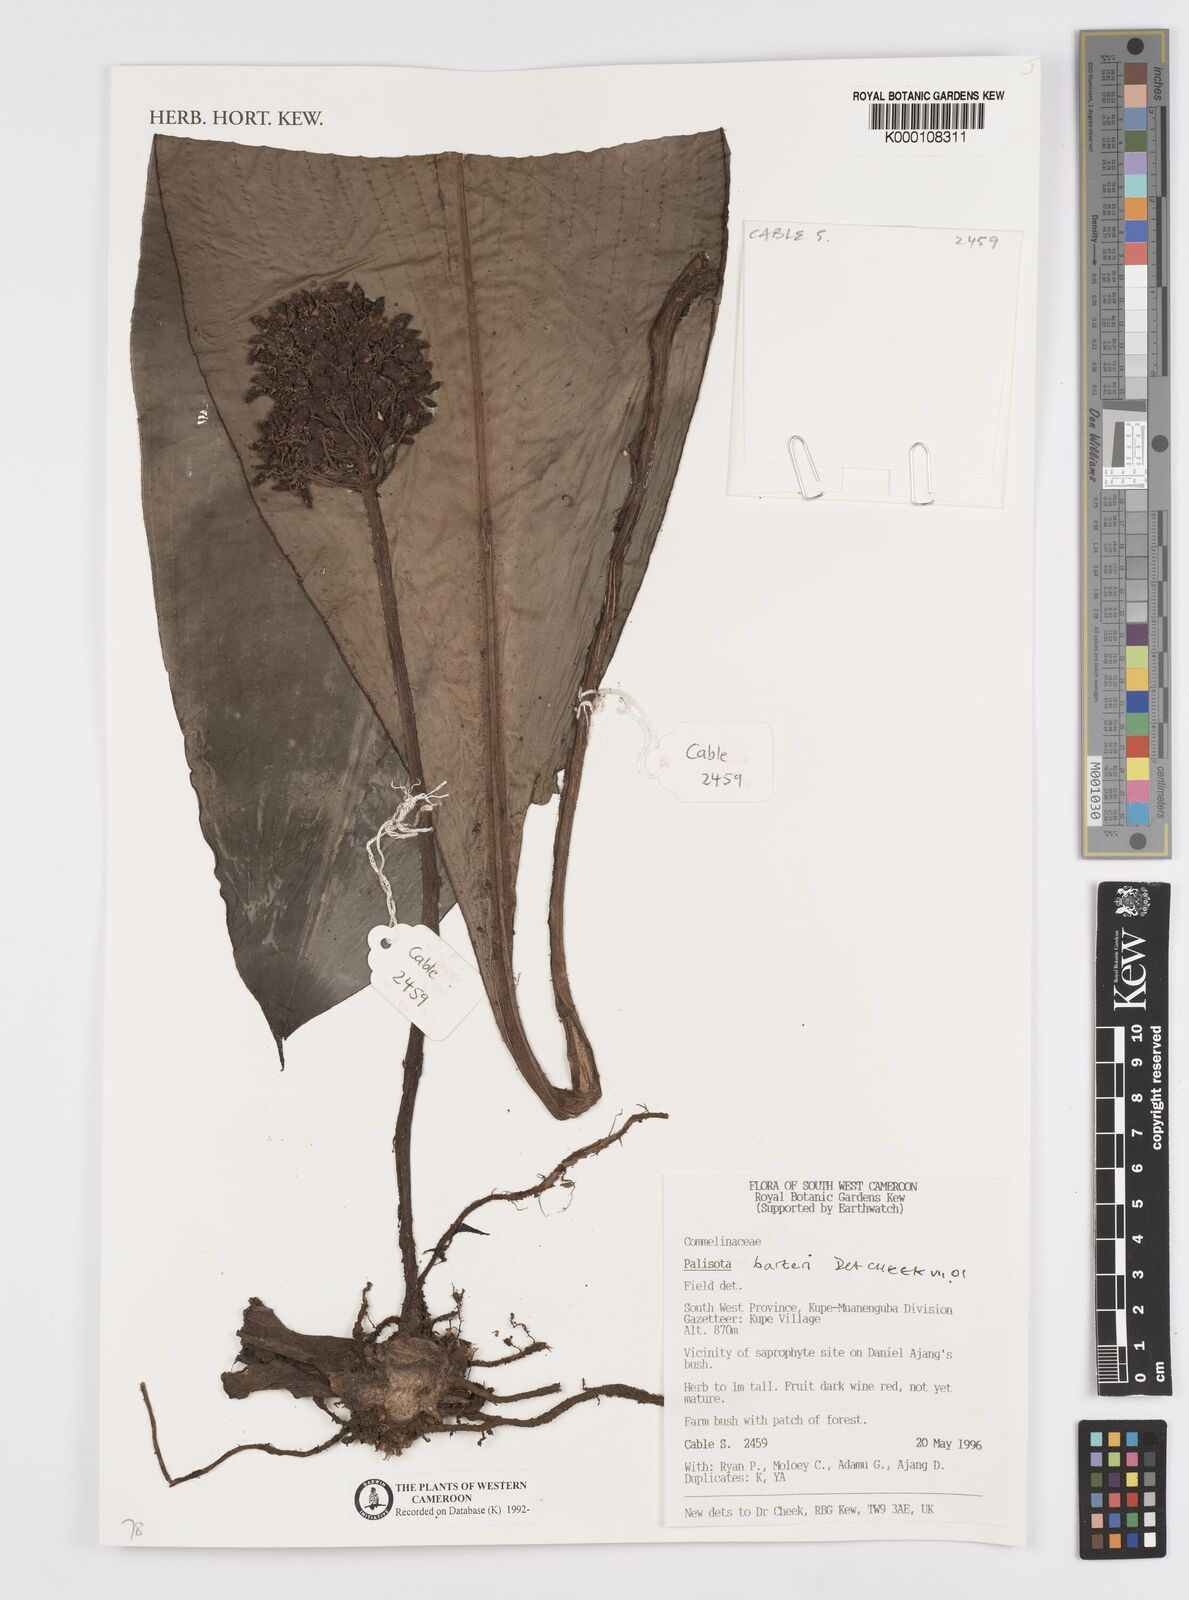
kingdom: Plantae
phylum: Tracheophyta
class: Liliopsida
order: Commelinales
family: Commelinaceae
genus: Palisota
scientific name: Palisota barteri
